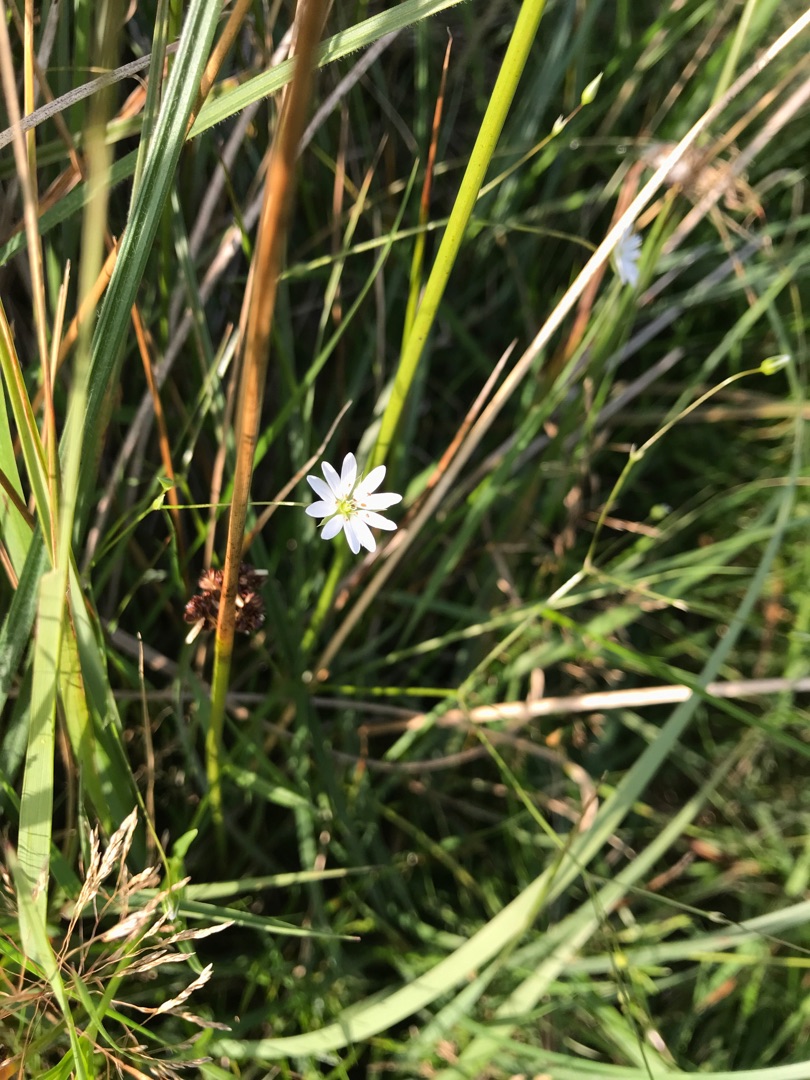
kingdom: Plantae
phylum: Tracheophyta
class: Magnoliopsida
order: Caryophyllales
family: Caryophyllaceae
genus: Stellaria
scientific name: Stellaria graminea
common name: Græsbladet fladstjerne
